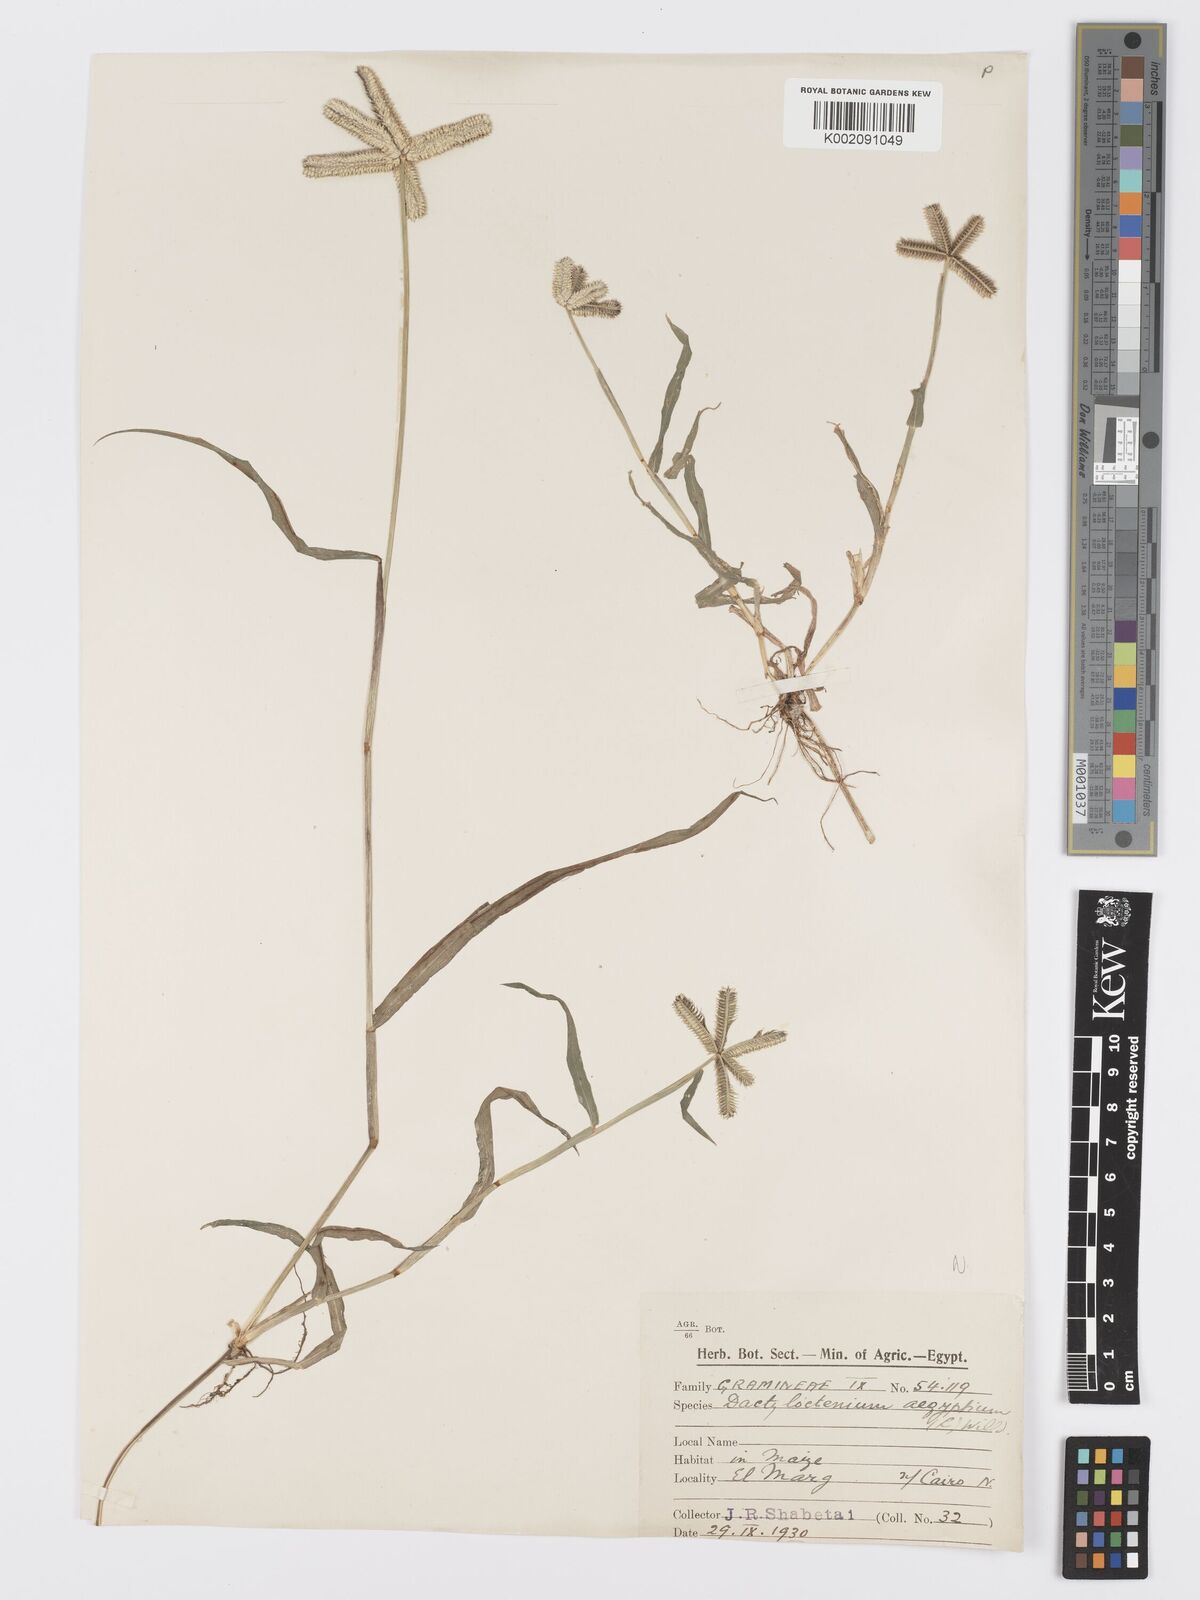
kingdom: Plantae
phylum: Tracheophyta
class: Liliopsida
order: Poales
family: Poaceae
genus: Dactyloctenium
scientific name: Dactyloctenium aegyptium
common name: Egyptian grass
